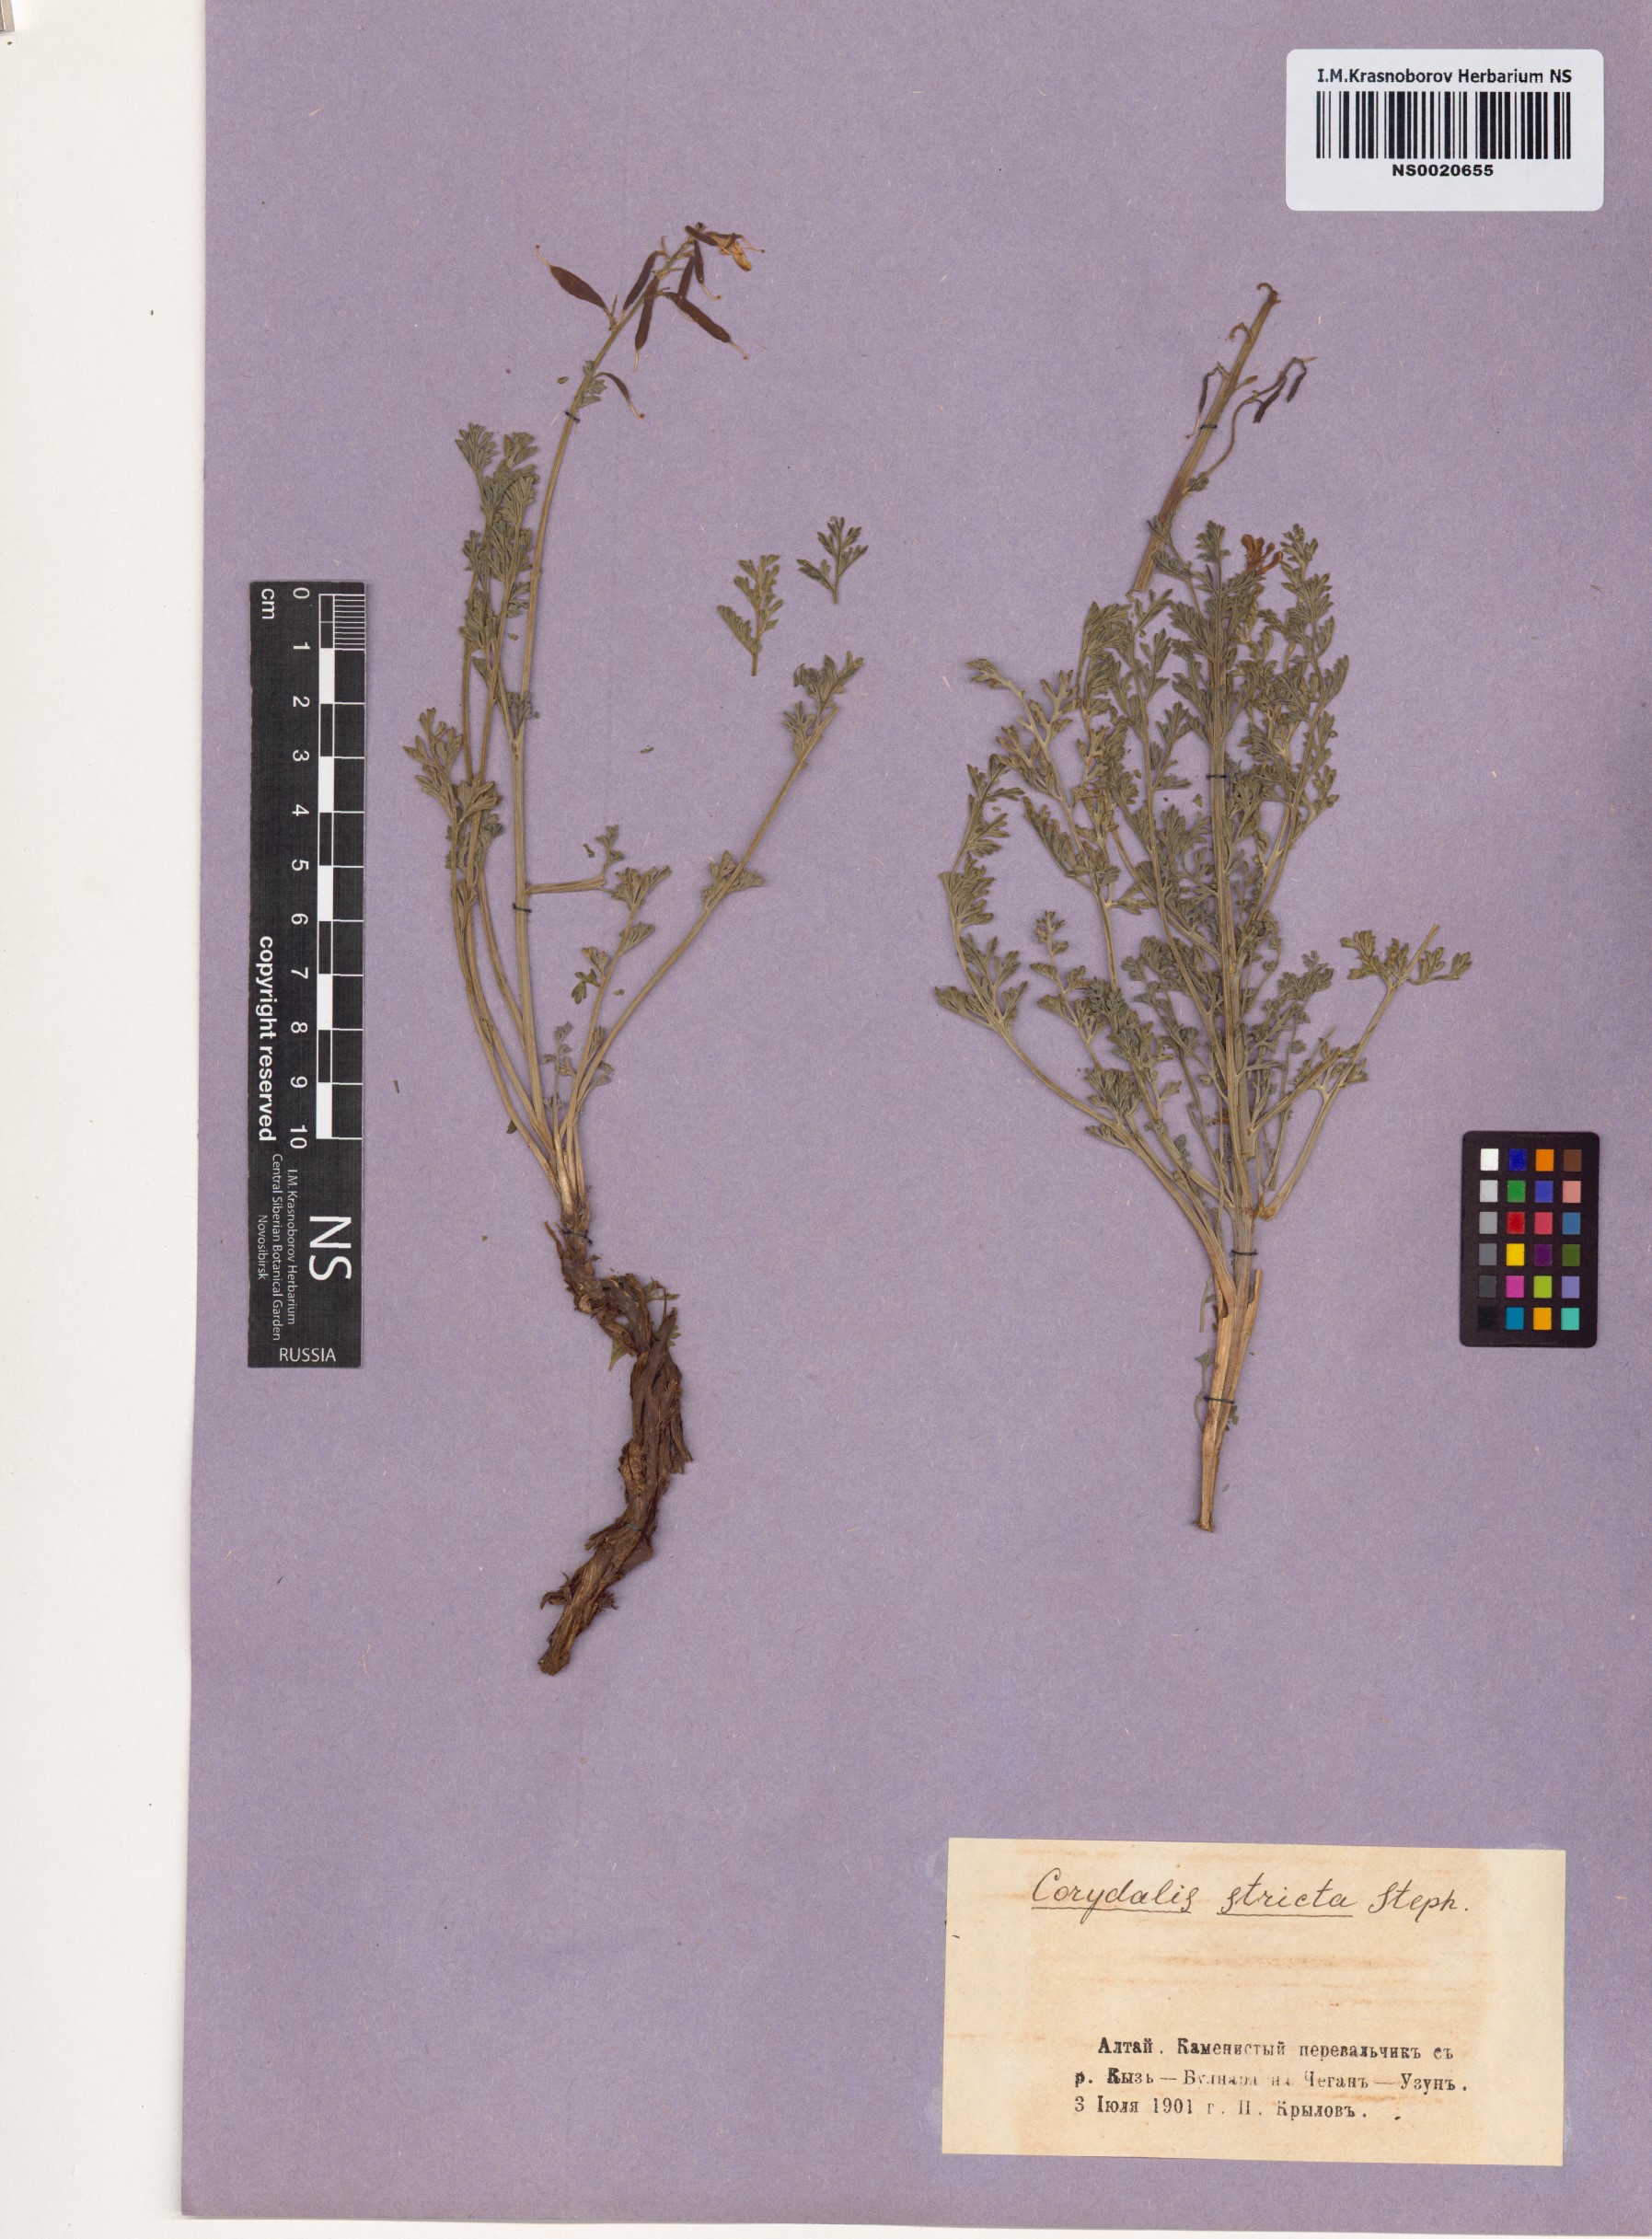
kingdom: Plantae
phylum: Tracheophyta
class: Magnoliopsida
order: Ranunculales
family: Papaveraceae
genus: Corydalis
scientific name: Corydalis stricta
